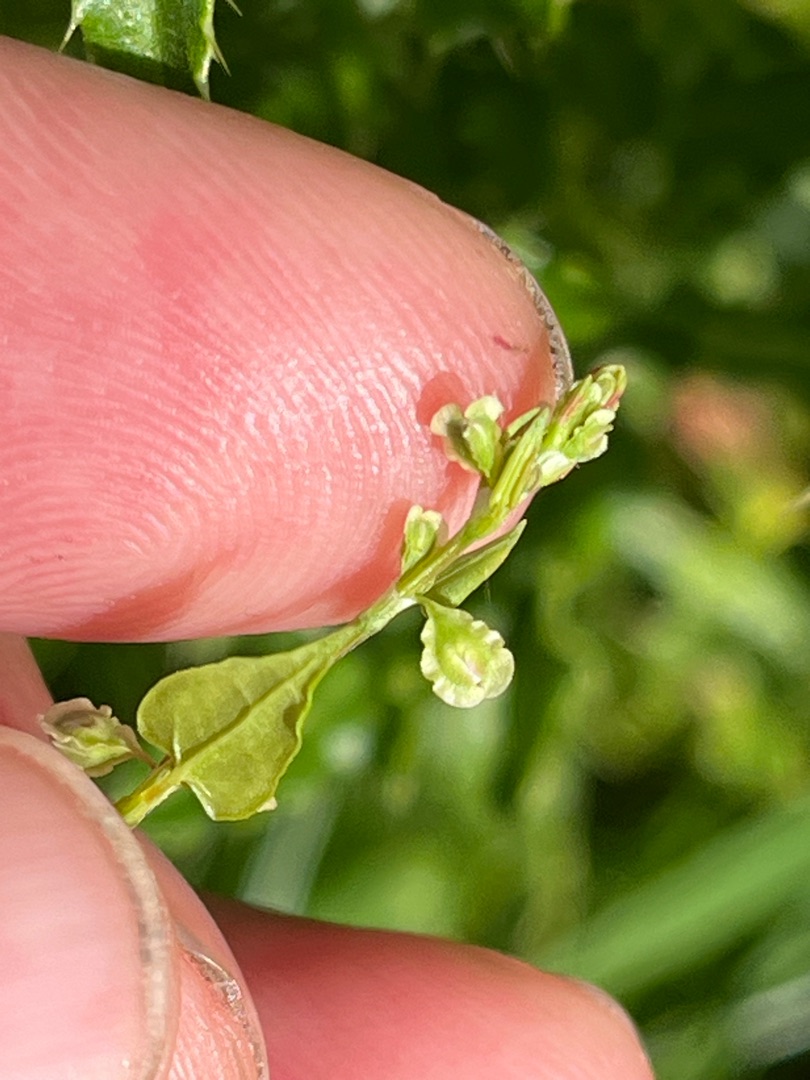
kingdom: Plantae
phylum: Tracheophyta
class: Magnoliopsida
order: Caryophyllales
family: Polygonaceae
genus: Fallopia
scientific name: Fallopia dumetorum
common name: Vinge-pileurt
